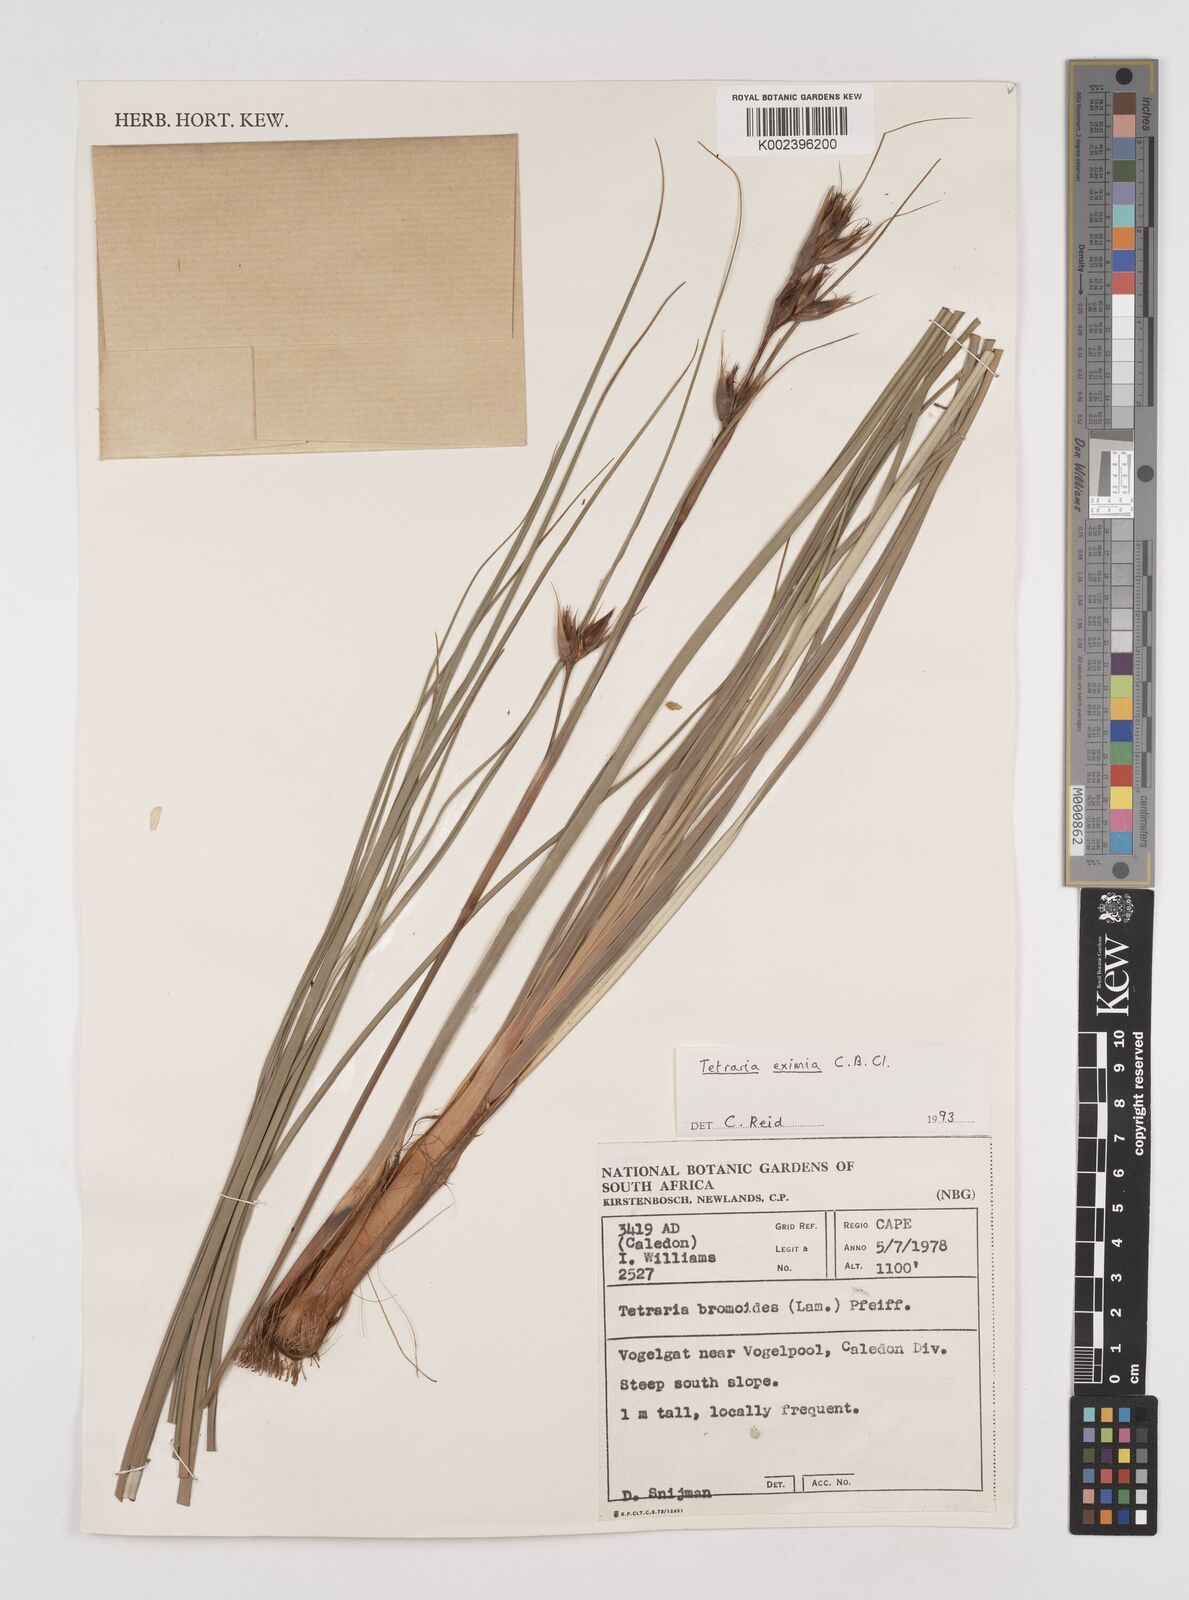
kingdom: Plantae
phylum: Tracheophyta
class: Liliopsida
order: Poales
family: Cyperaceae
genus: Tetraria
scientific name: Tetraria eximia
